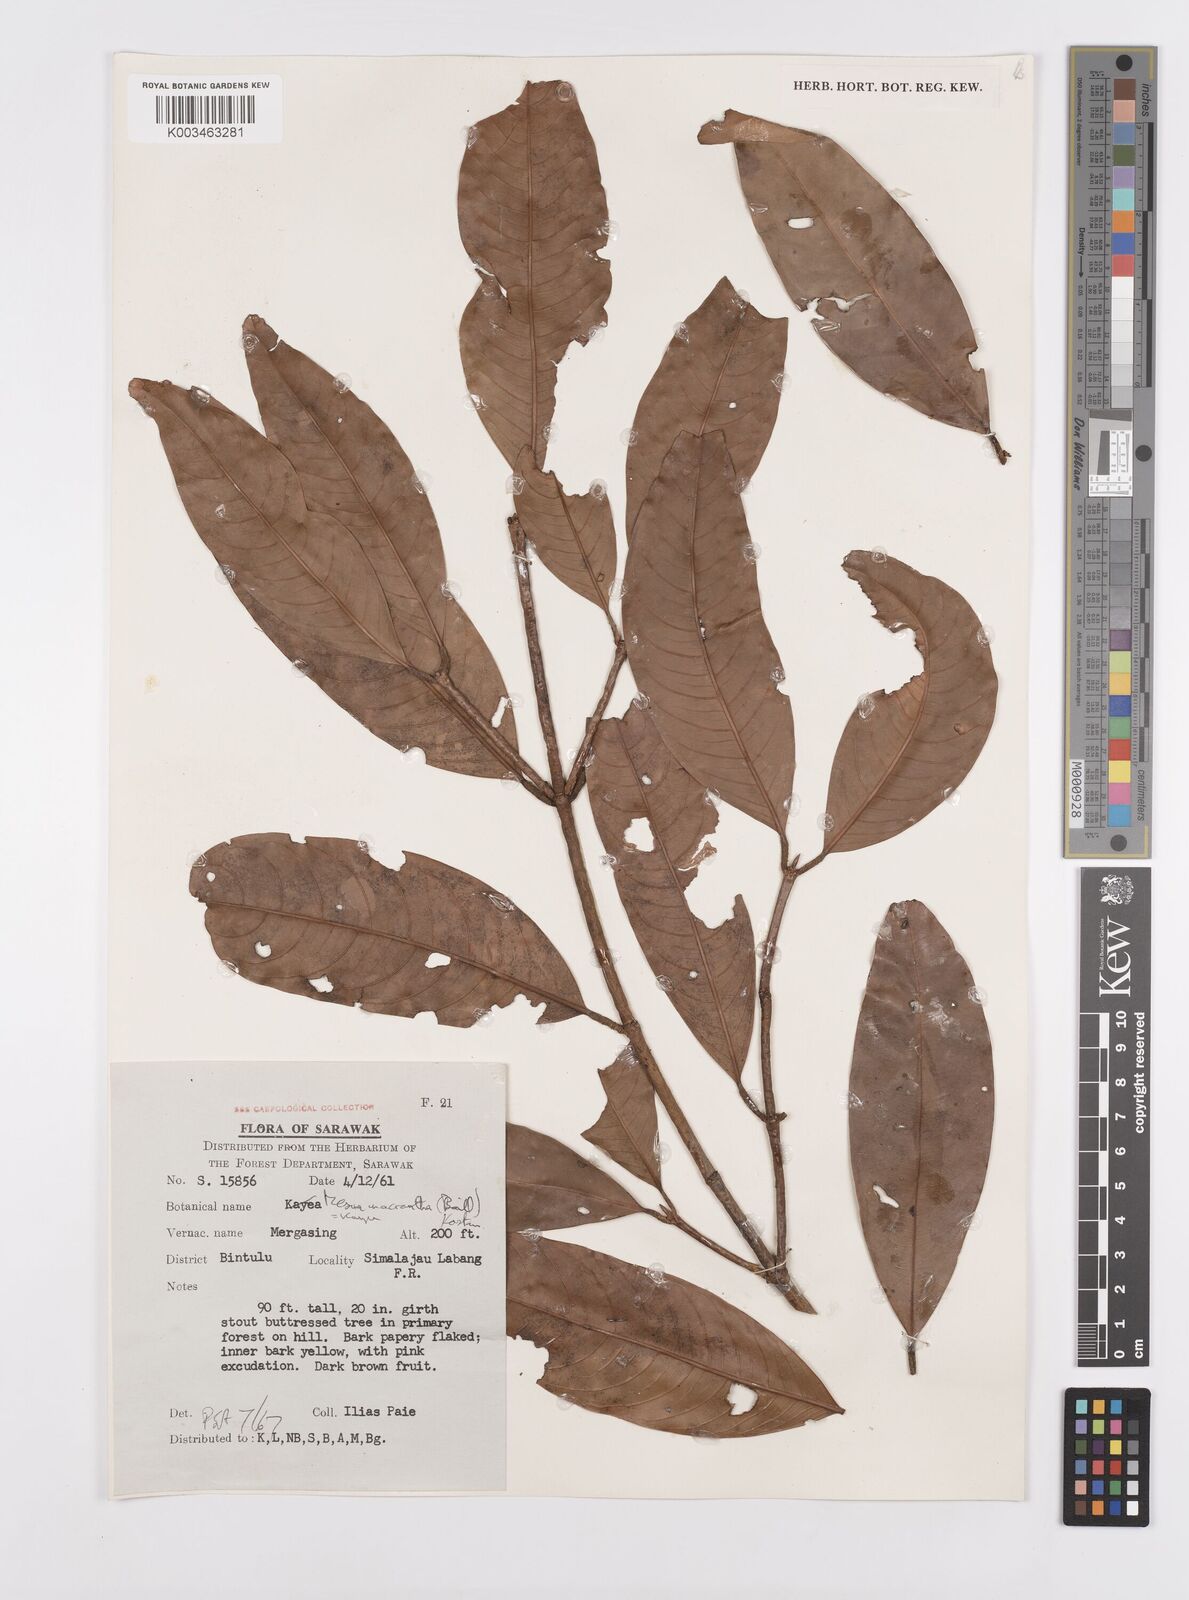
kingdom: Plantae
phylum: Tracheophyta
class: Magnoliopsida
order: Malpighiales
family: Calophyllaceae
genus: Kayea
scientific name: Kayea macrantha
